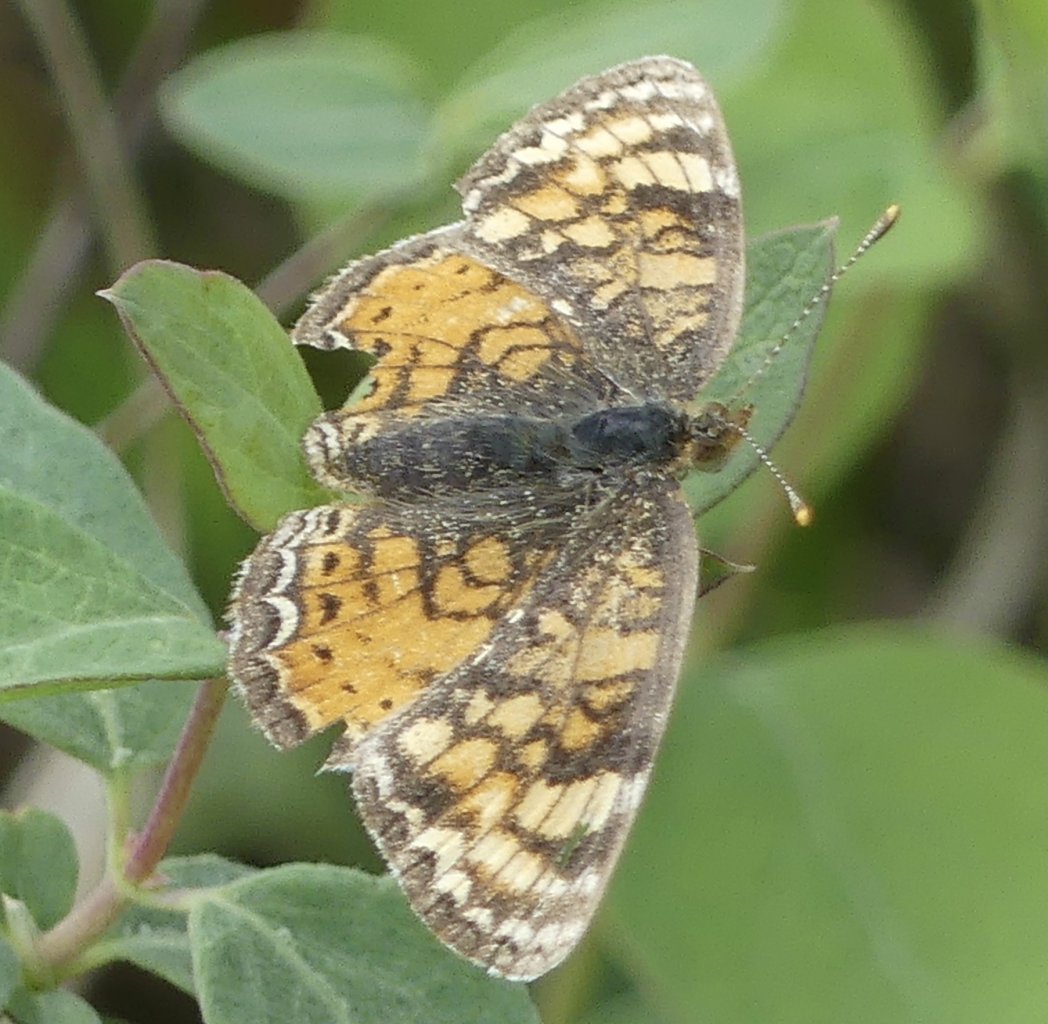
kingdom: Animalia
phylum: Arthropoda
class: Insecta
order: Lepidoptera
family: Nymphalidae
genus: Phyciodes
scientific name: Phyciodes
